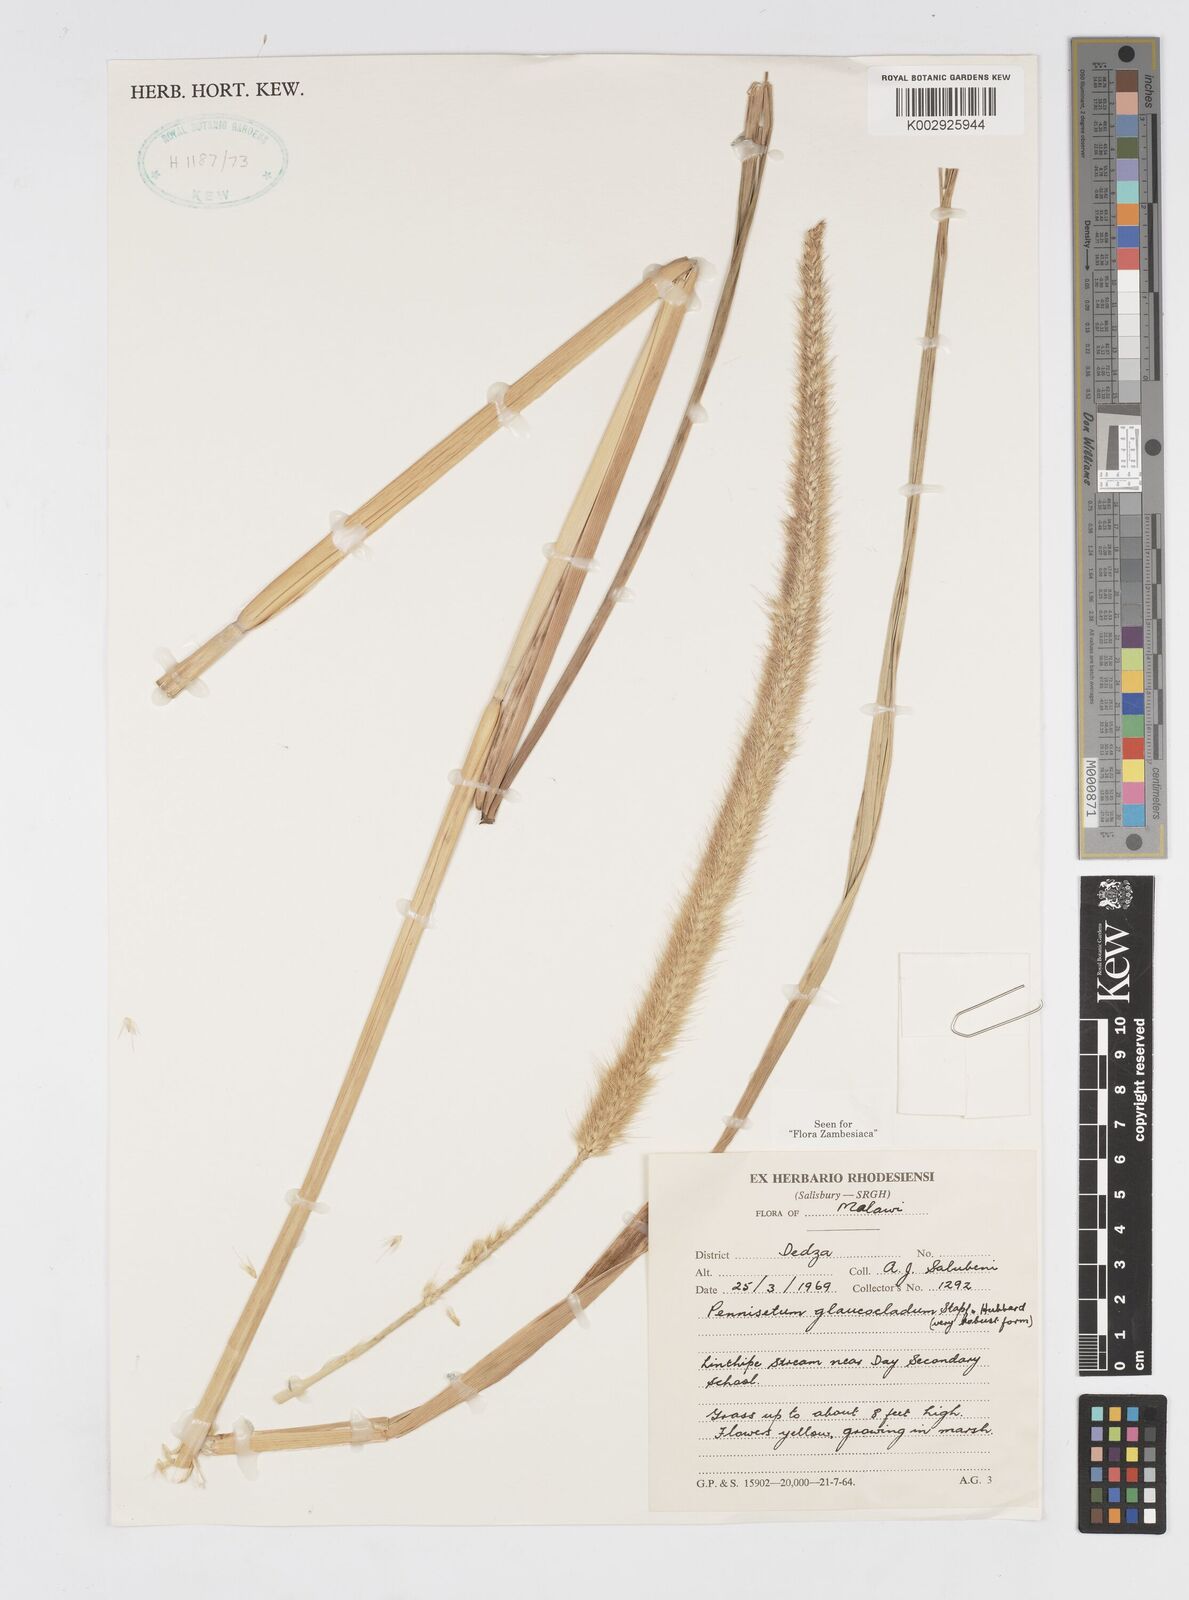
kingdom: Plantae
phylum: Tracheophyta
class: Liliopsida
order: Poales
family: Poaceae
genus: Cenchrus
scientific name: Cenchrus caudatus
